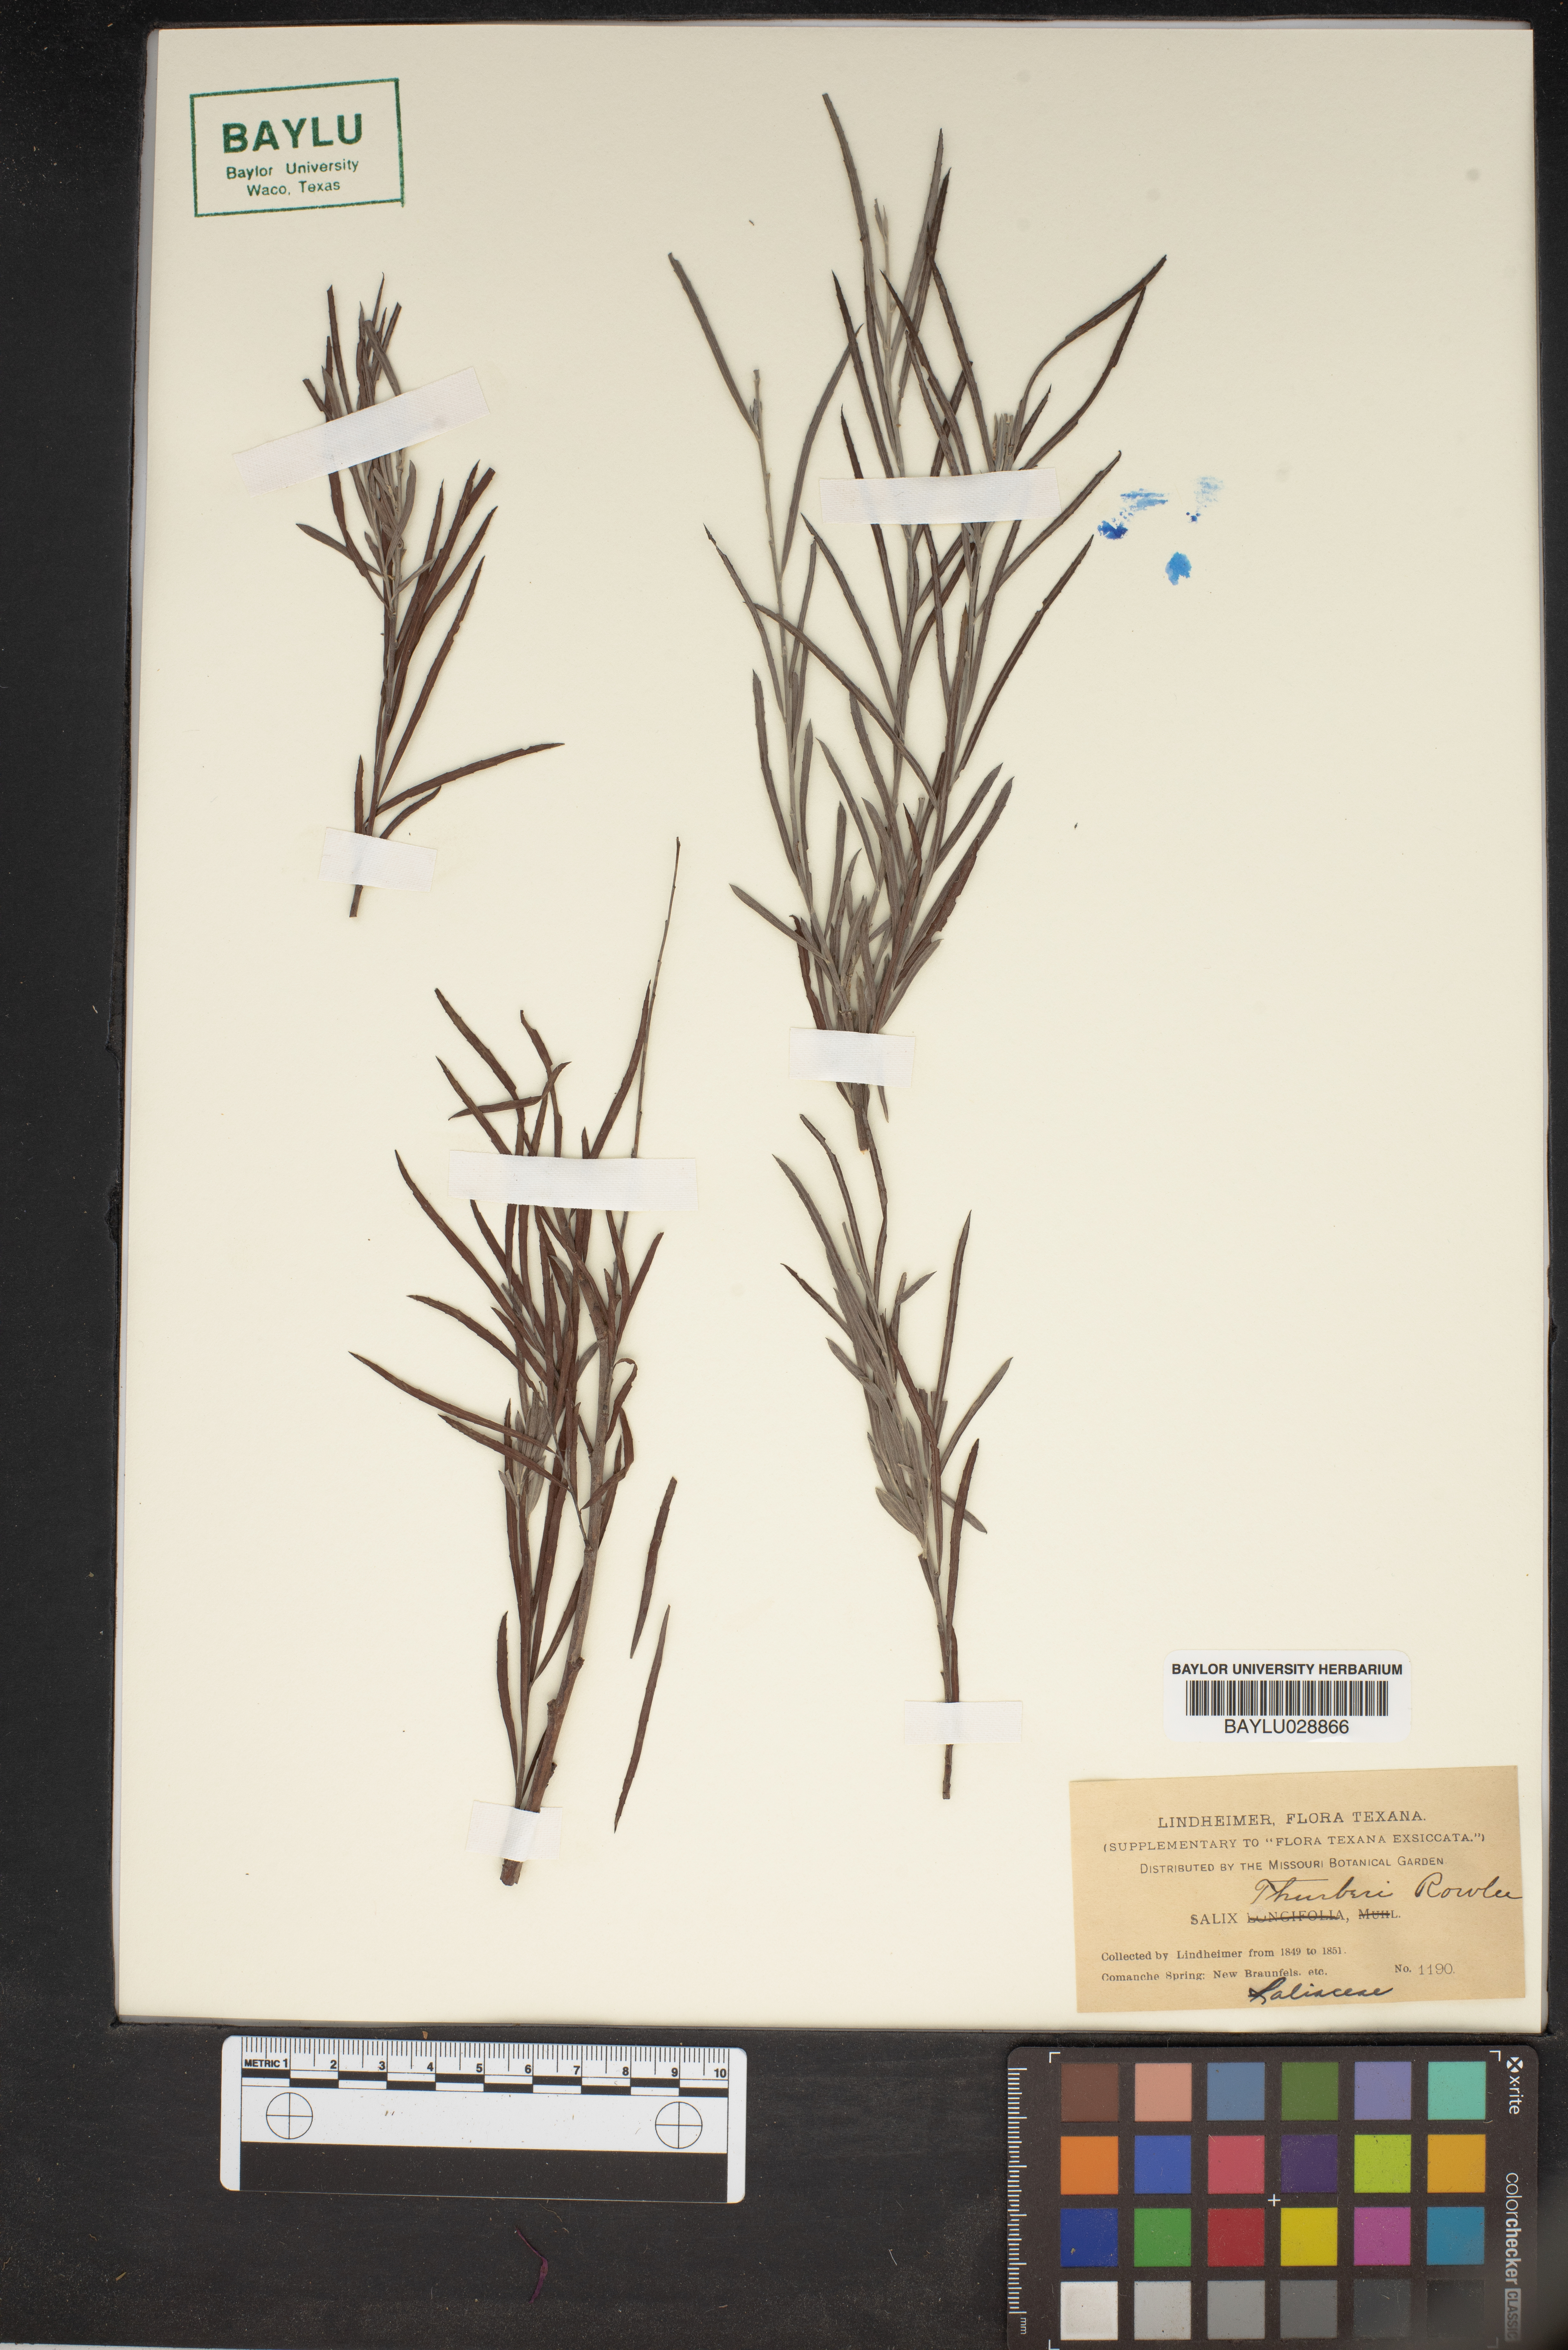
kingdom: Plantae
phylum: Tracheophyta
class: Magnoliopsida
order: Malpighiales
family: Salicaceae
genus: Salix
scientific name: Salix exigua
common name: Coyote willow
